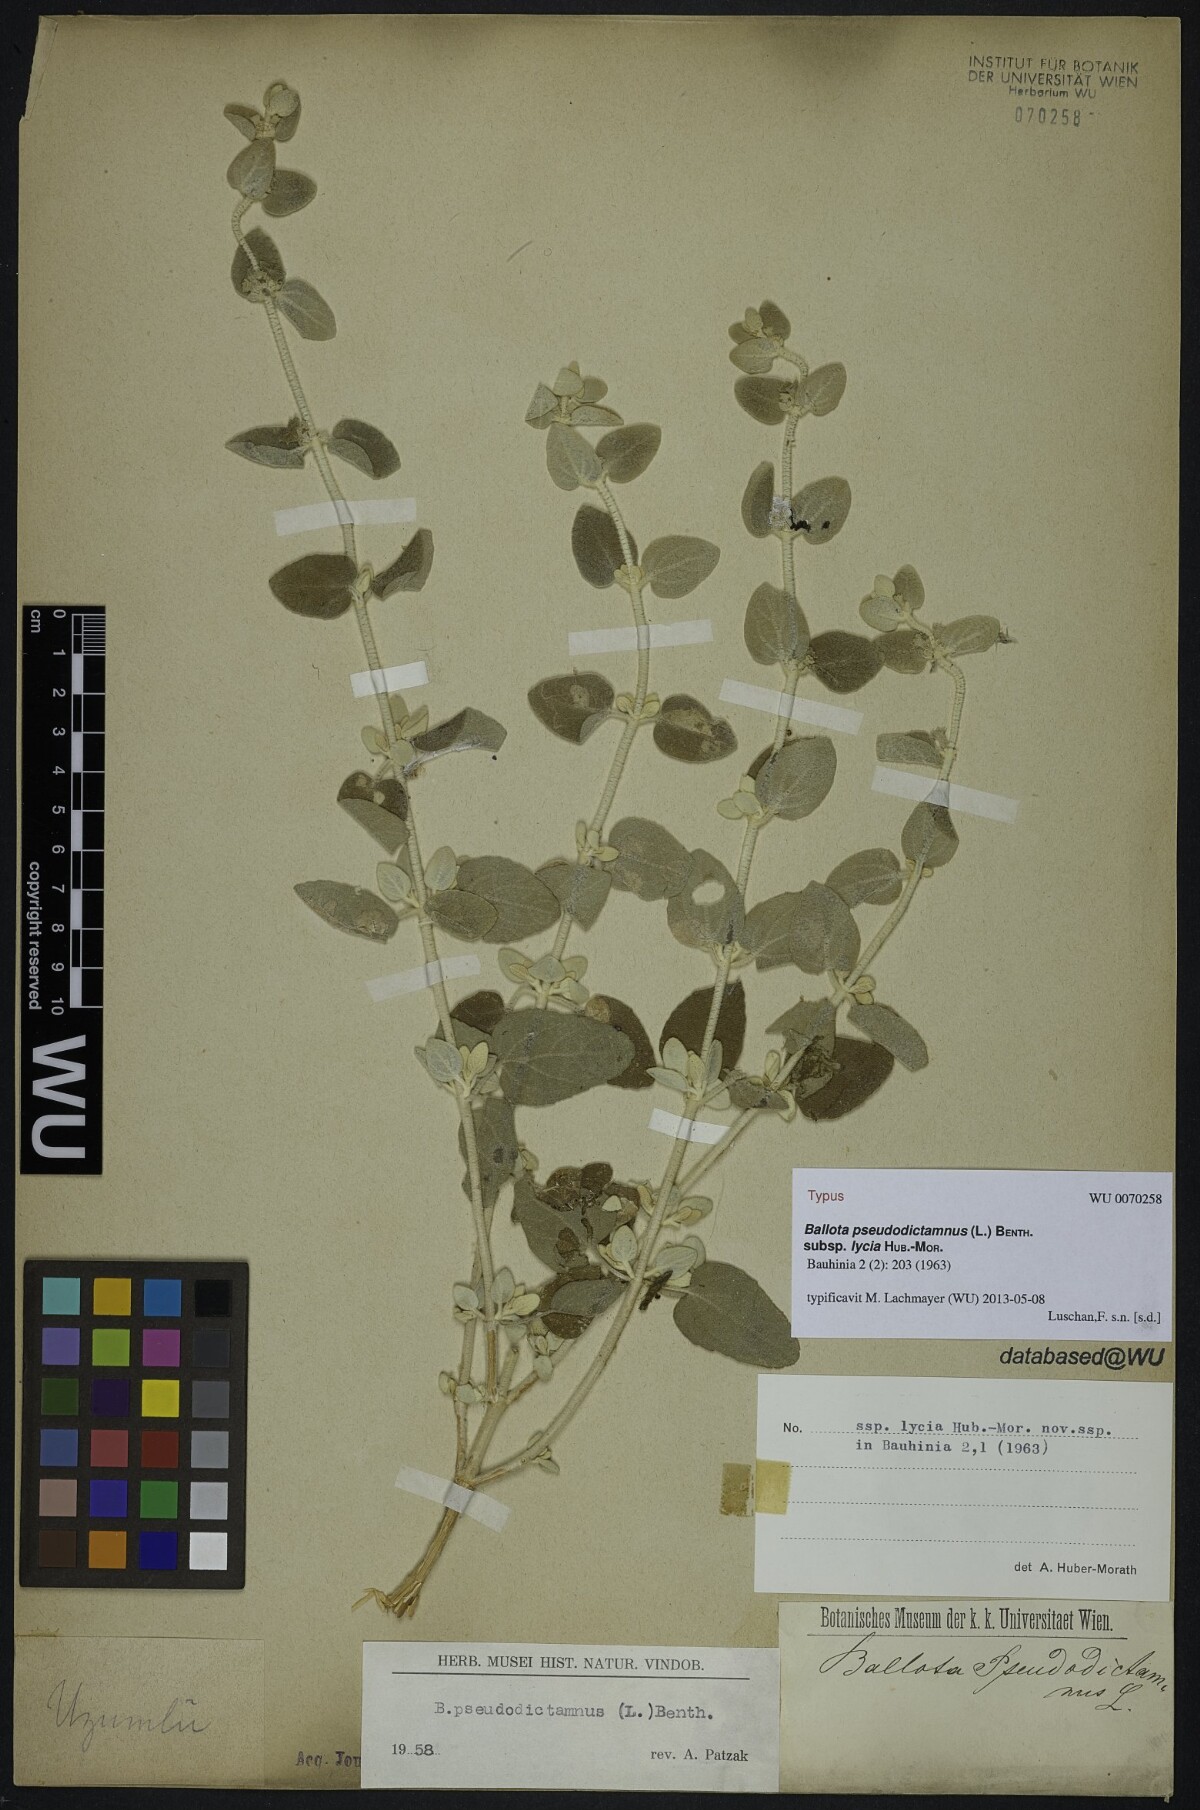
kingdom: Plantae
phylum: Tracheophyta
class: Magnoliopsida
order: Lamiales
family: Lamiaceae
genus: Pseudodictamnus
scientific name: Pseudodictamnus mediterraneus
